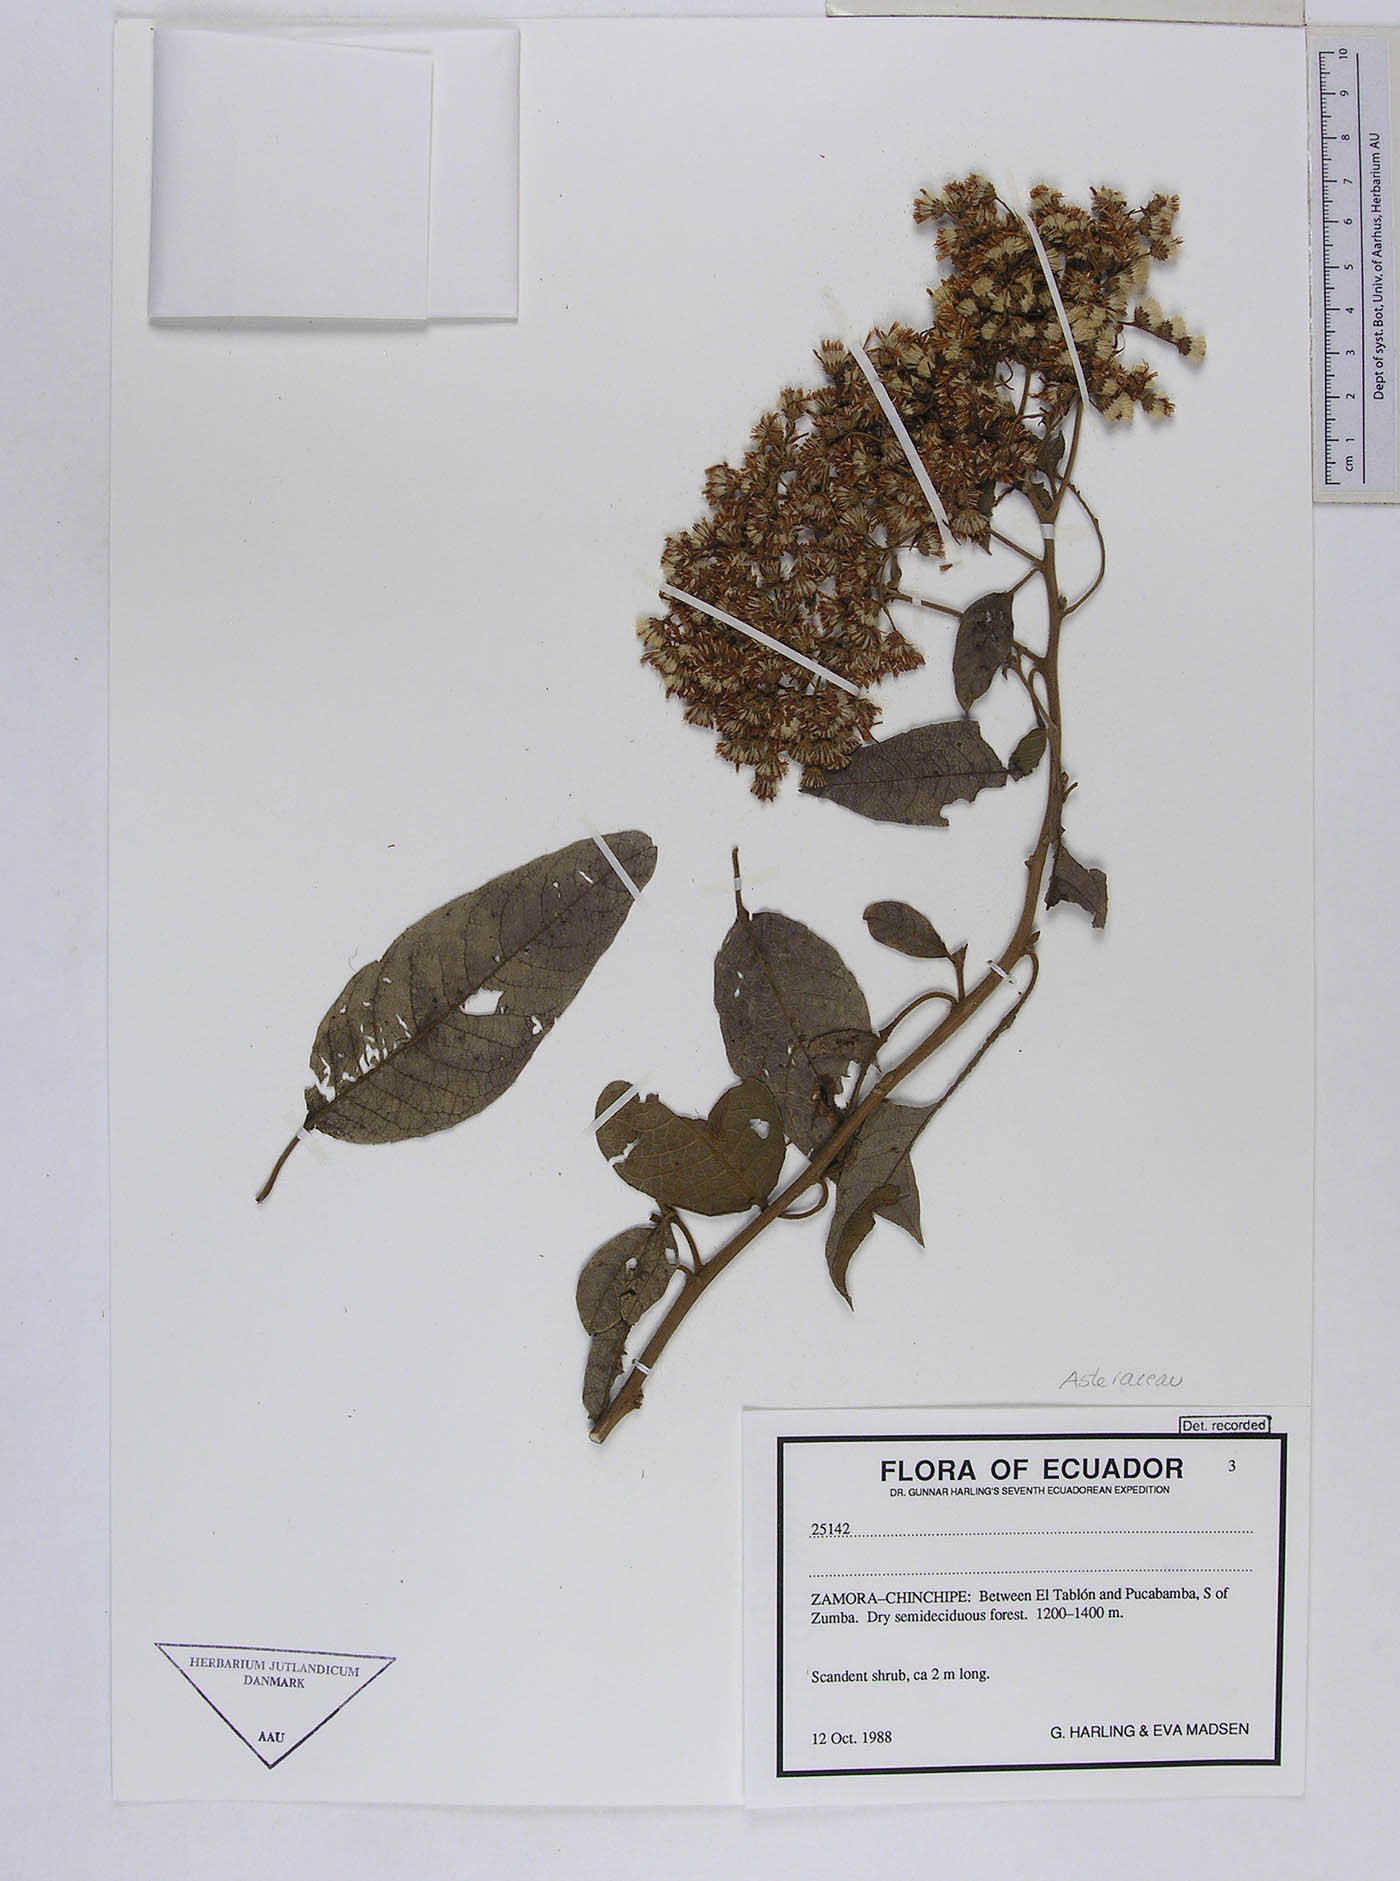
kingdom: Plantae
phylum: Tracheophyta
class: Magnoliopsida
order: Asterales
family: Asteraceae
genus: Vernonanthura
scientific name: Vernonanthura patens
